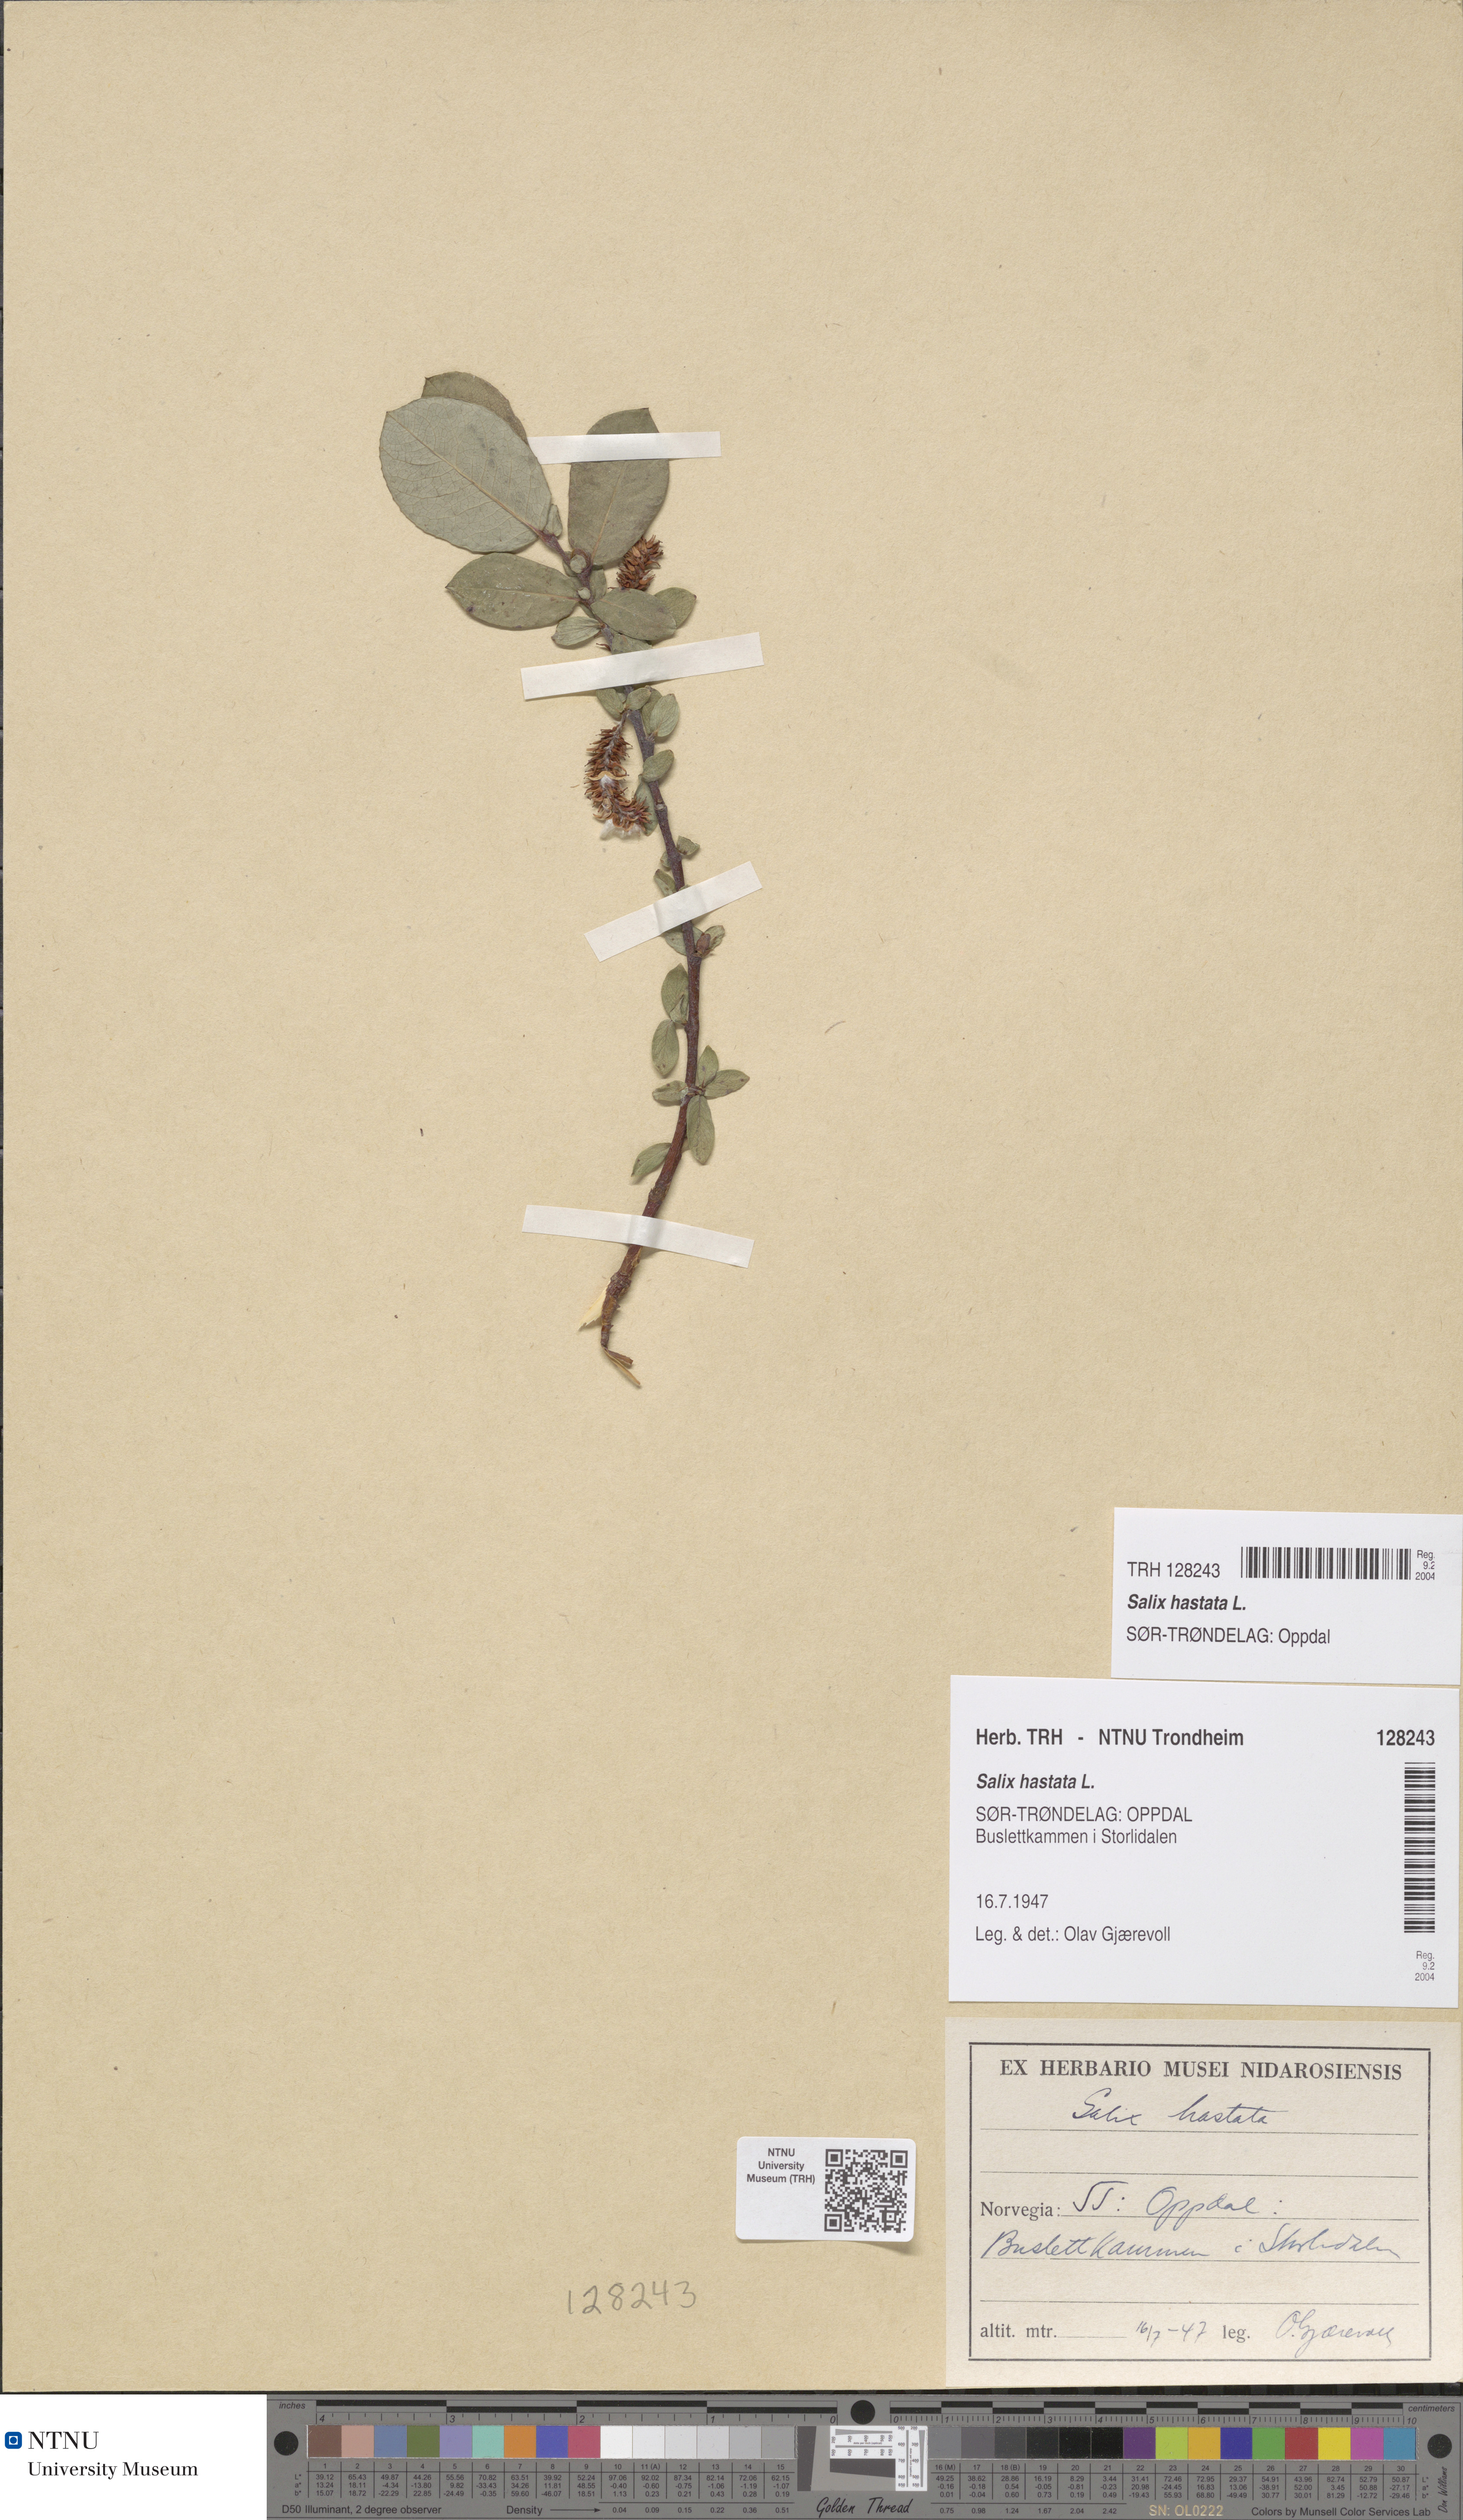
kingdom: Plantae
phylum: Tracheophyta
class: Magnoliopsida
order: Malpighiales
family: Salicaceae
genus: Salix
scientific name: Salix hastata
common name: Halberd willow
